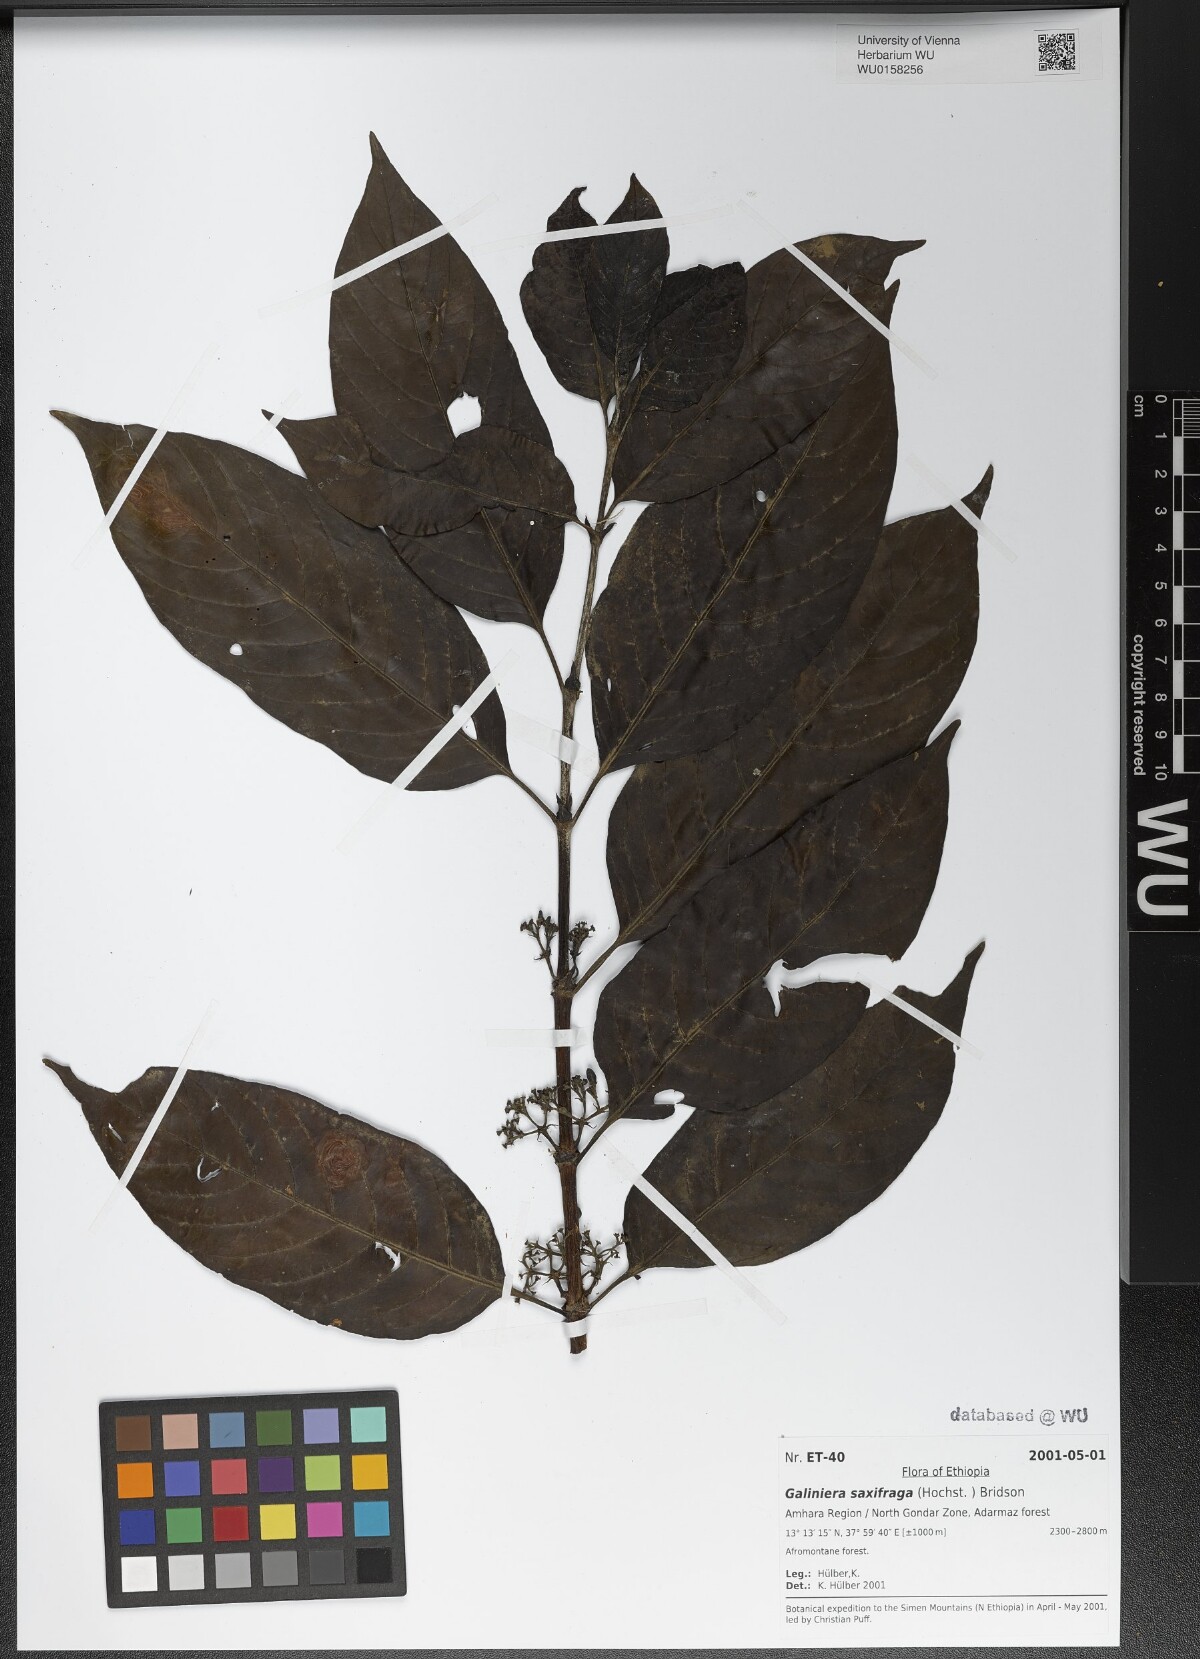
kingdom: Plantae
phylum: Tracheophyta
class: Magnoliopsida
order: Gentianales
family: Rubiaceae
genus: Galiniera
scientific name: Galiniera saxifraga
